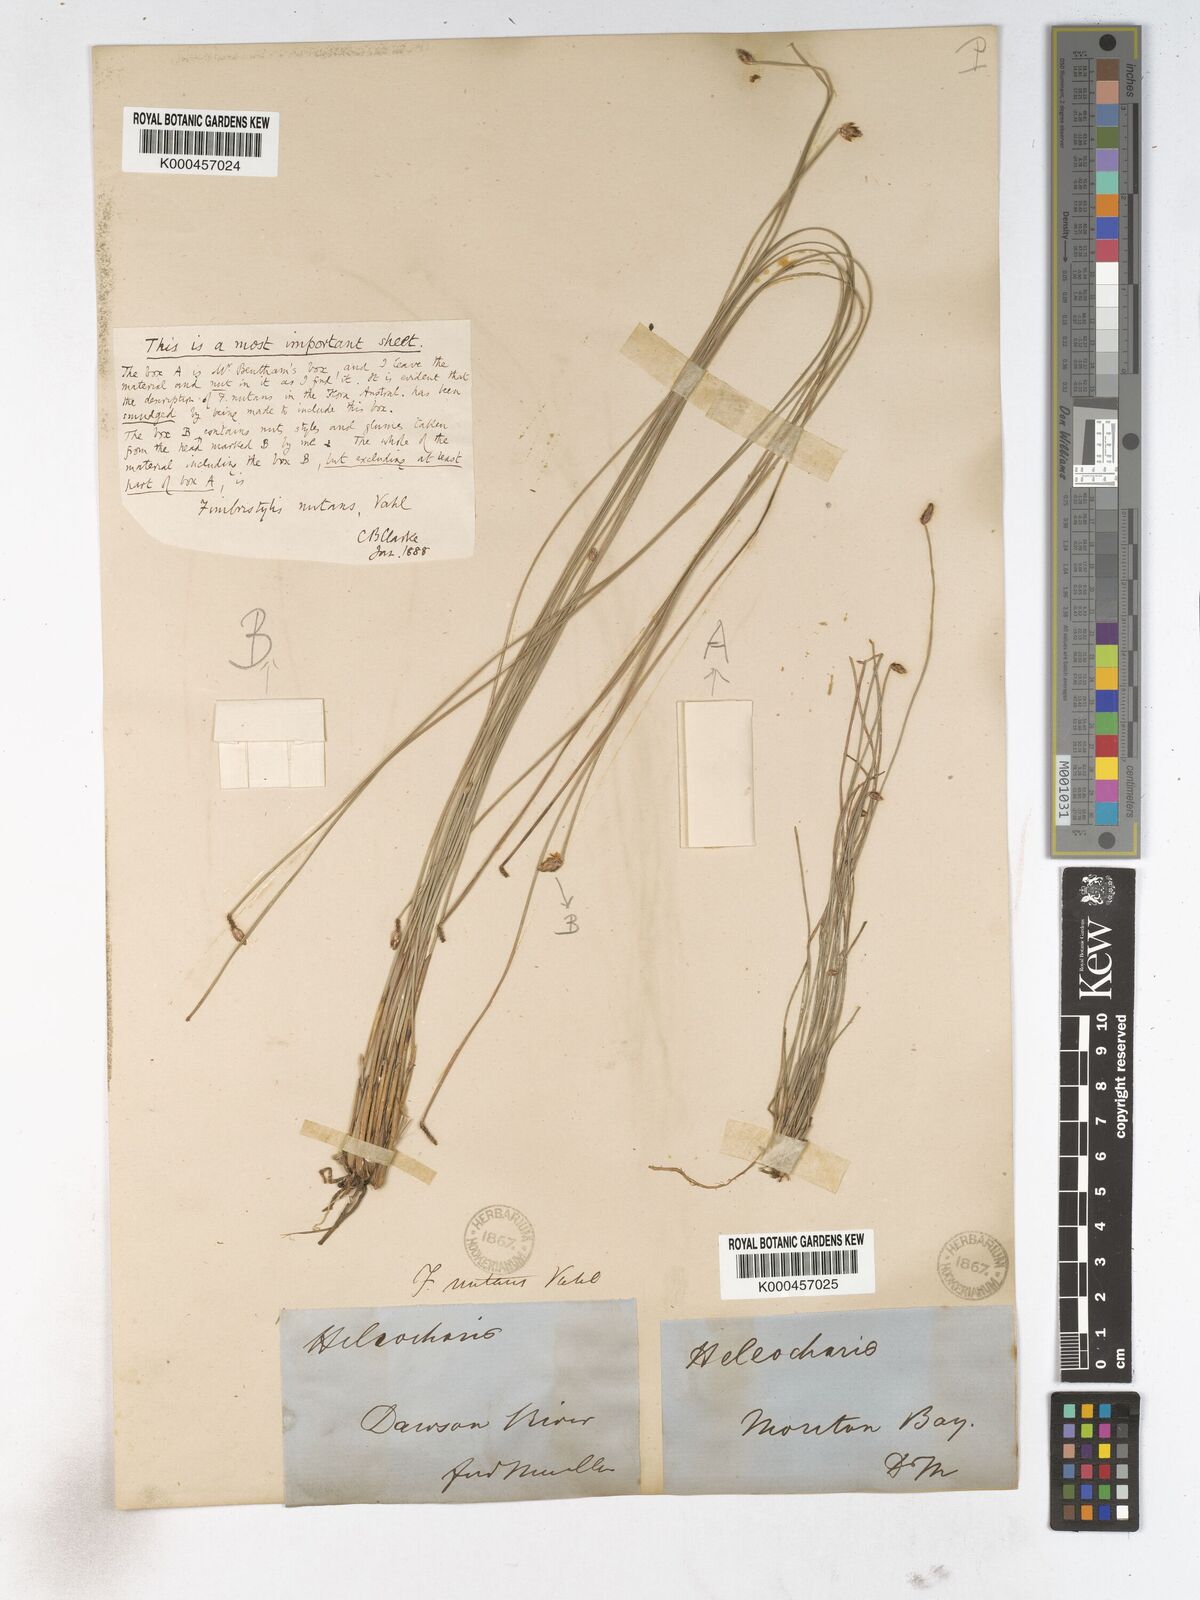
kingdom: Plantae
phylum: Tracheophyta
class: Liliopsida
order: Poales
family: Cyperaceae
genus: Fimbristylis
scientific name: Fimbristylis nutans
